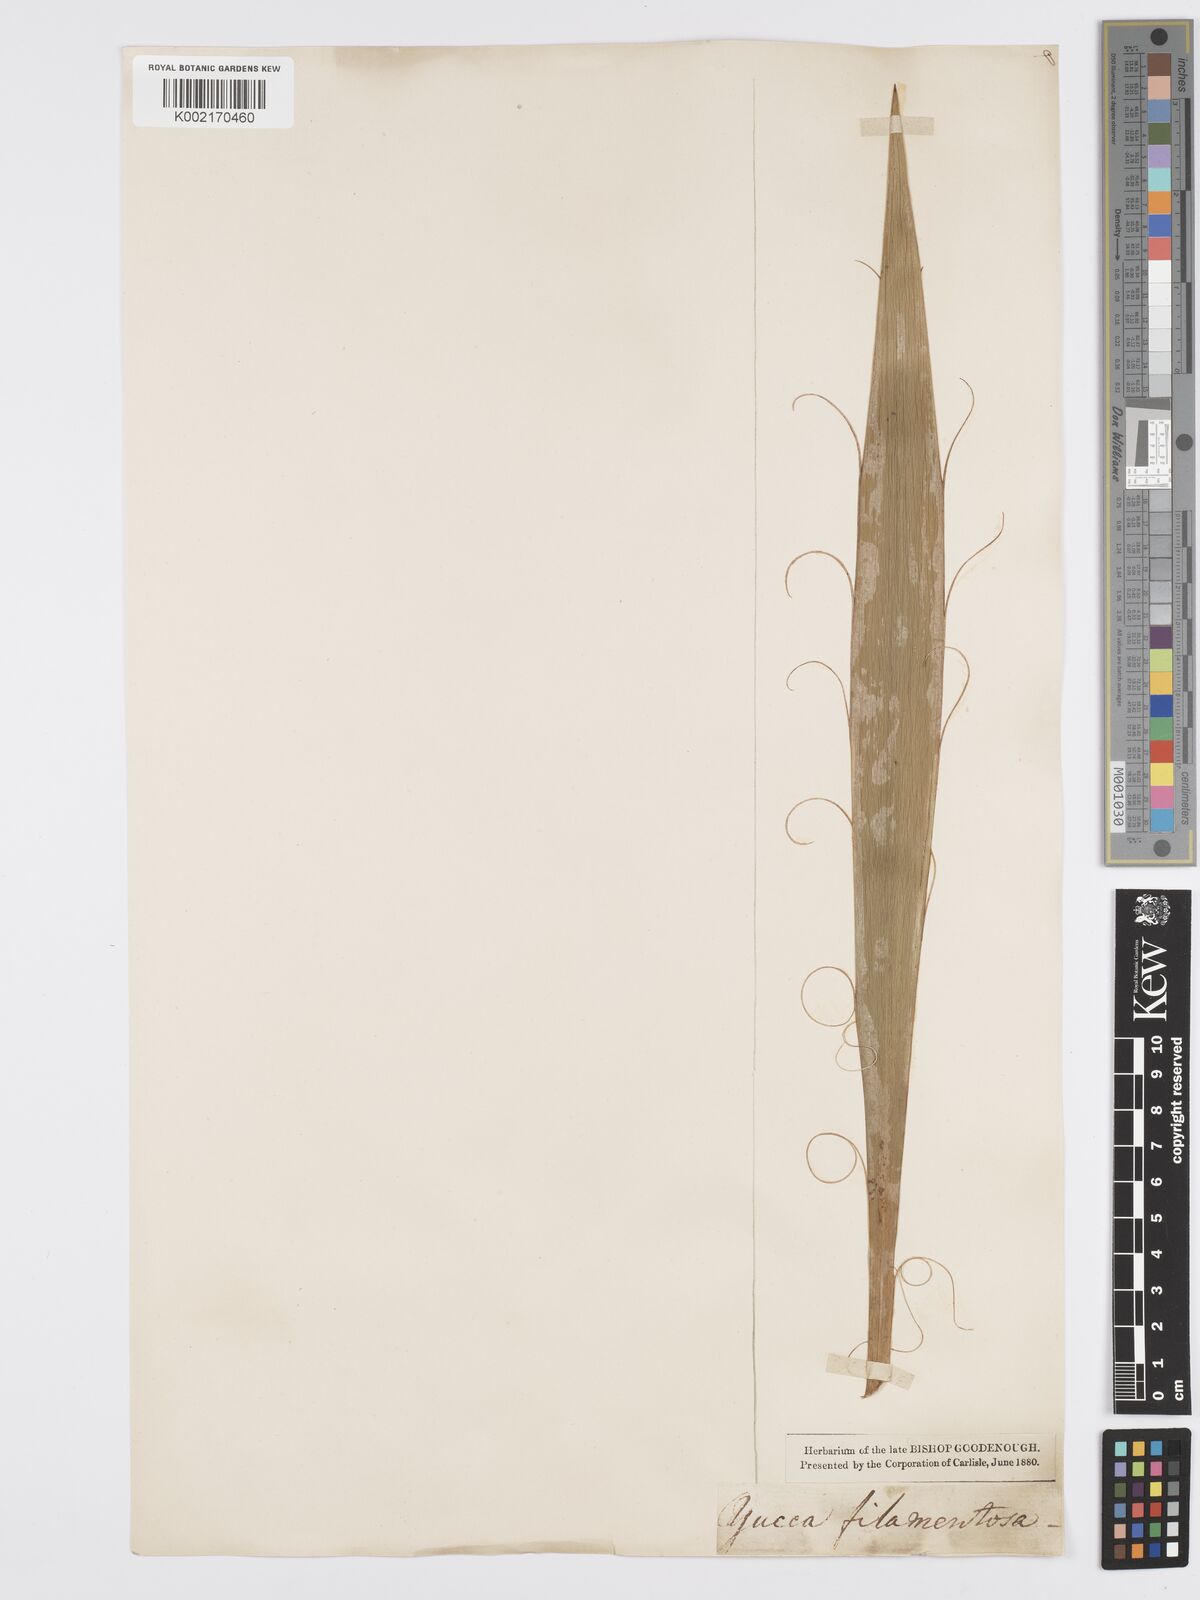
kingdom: Plantae
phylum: Tracheophyta
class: Liliopsida
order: Asparagales
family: Asparagaceae
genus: Yucca
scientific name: Yucca filamentosa
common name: Adam's-needle
